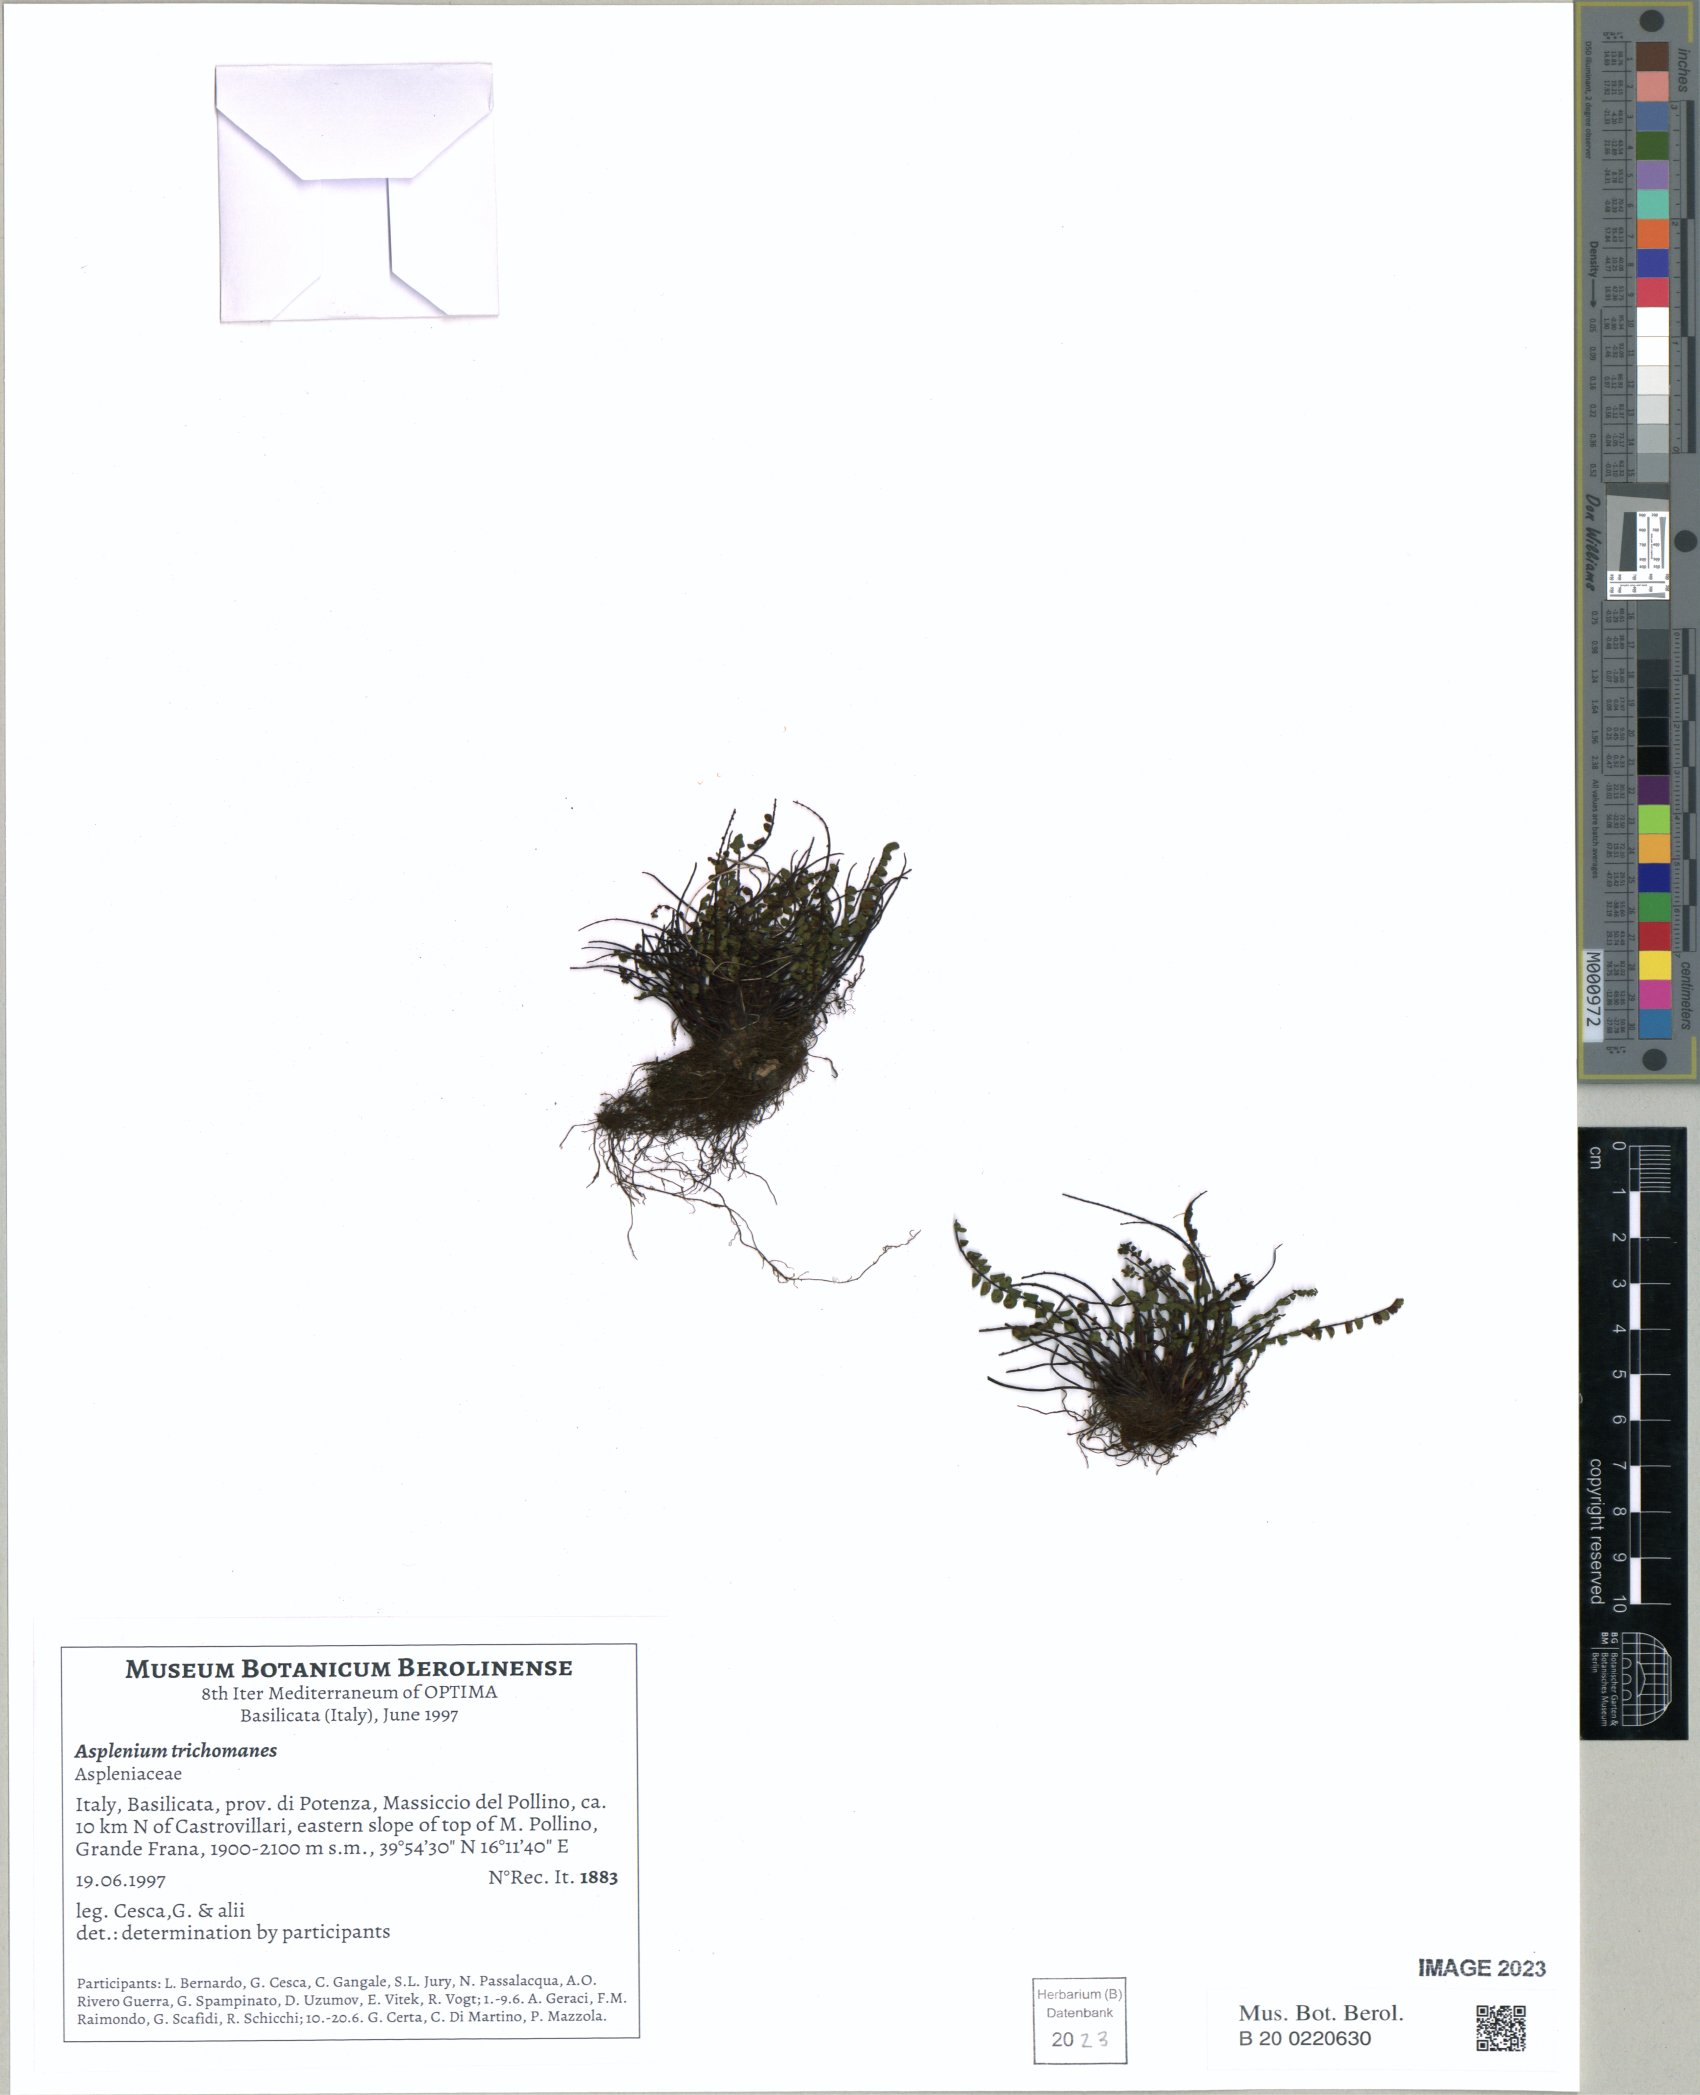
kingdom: Plantae
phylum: Tracheophyta
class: Polypodiopsida
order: Polypodiales
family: Aspleniaceae
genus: Asplenium
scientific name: Asplenium trichomanes
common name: Maidenhair spleenwort
